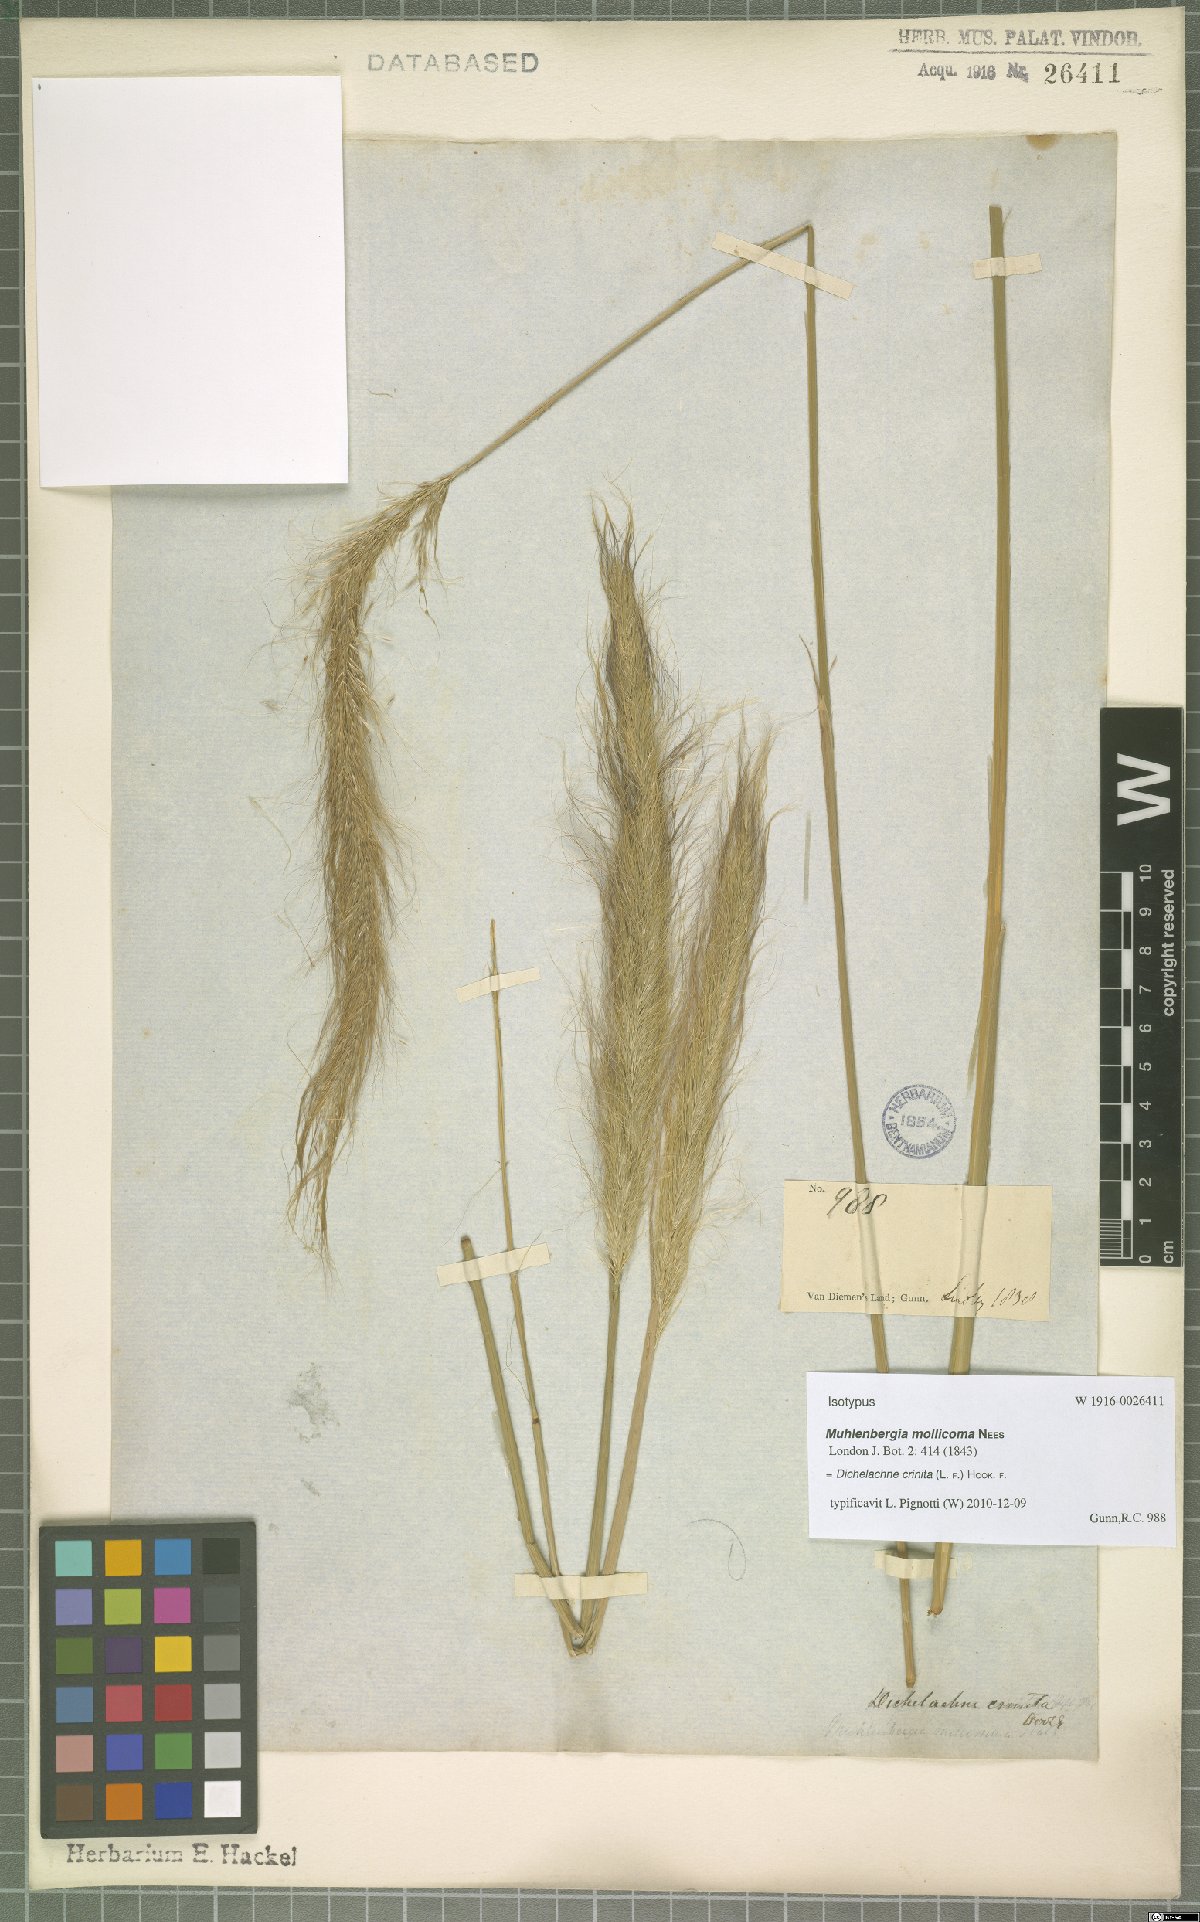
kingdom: Plantae
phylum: Tracheophyta
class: Liliopsida
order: Poales
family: Poaceae
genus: Dichelachne
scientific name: Dichelachne crinita
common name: Clovenfoot plumegrass
